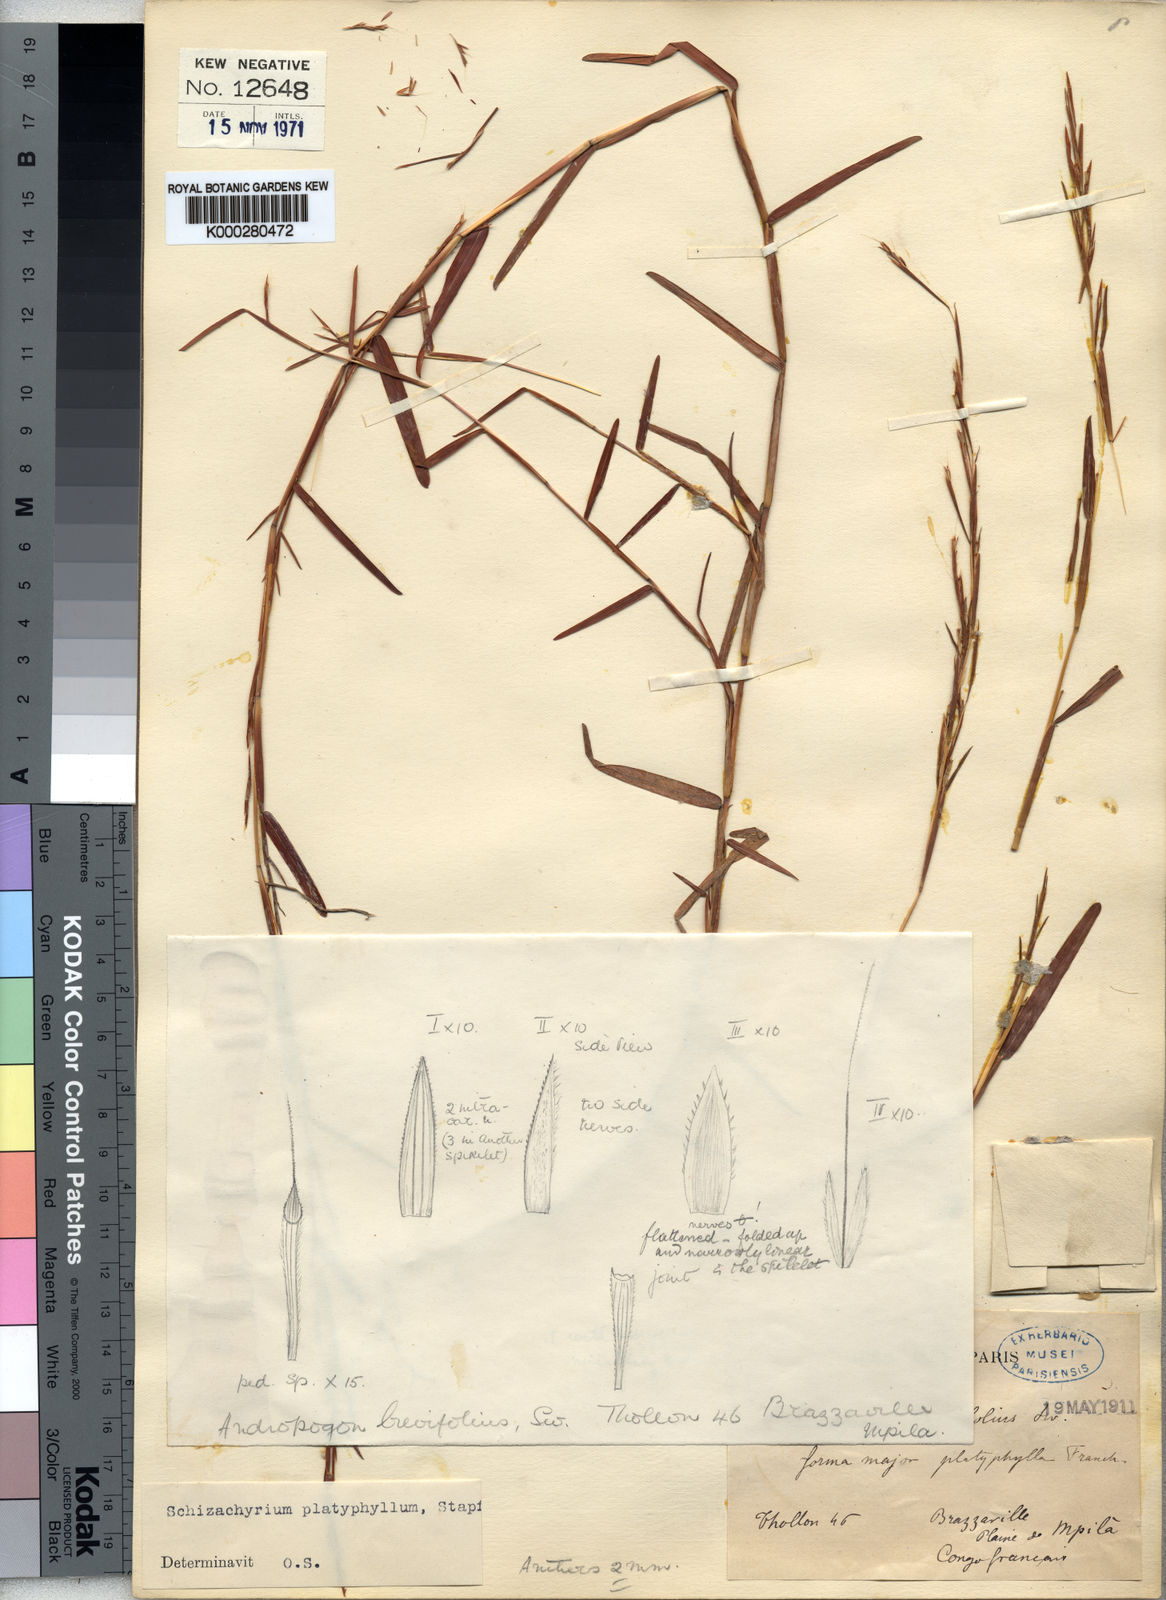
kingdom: Plantae
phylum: Tracheophyta
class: Liliopsida
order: Poales
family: Poaceae
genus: Schizachyrium
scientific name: Schizachyrium platyphyllum
